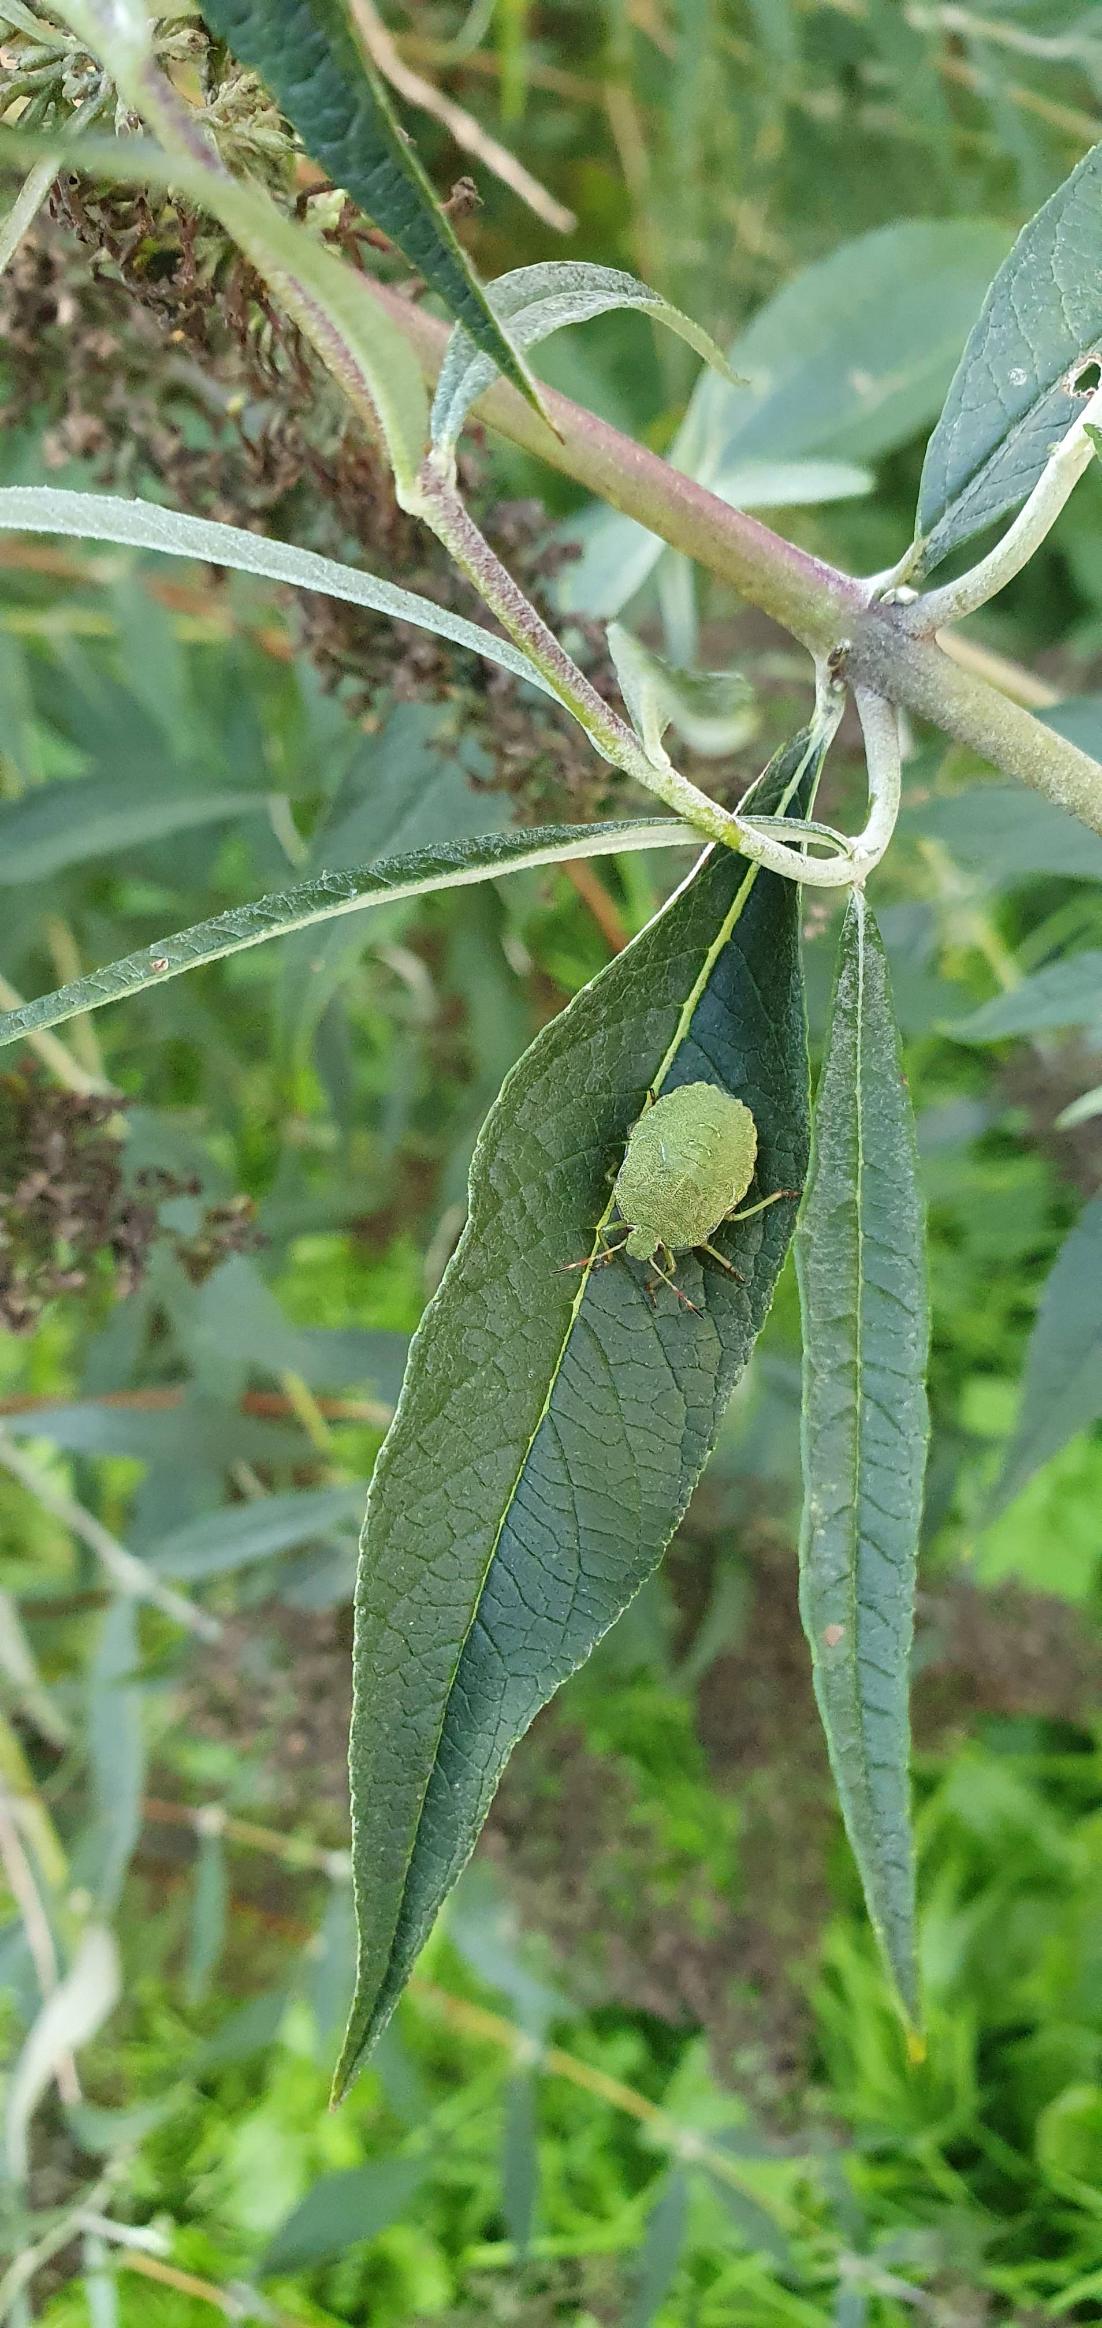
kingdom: Animalia
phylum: Arthropoda
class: Insecta
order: Hemiptera
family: Pentatomidae
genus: Palomena
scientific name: Palomena prasina
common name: Grøn bredtæge
